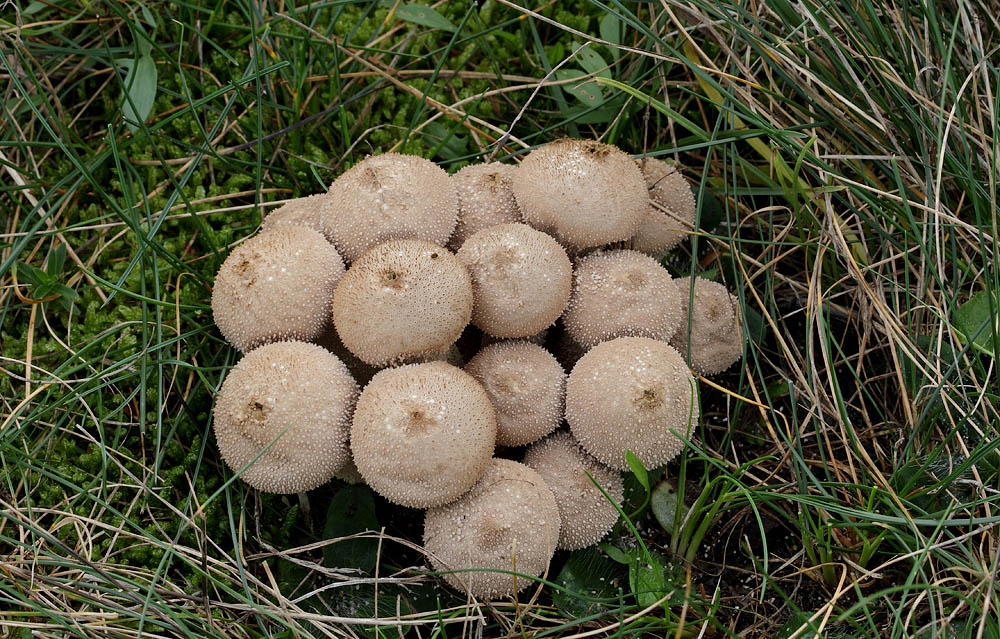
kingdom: Fungi
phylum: Basidiomycota
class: Agaricomycetes
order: Agaricales
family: Lycoperdaceae
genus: Lycoperdon
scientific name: Lycoperdon perlatum
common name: krystal-støvbold
